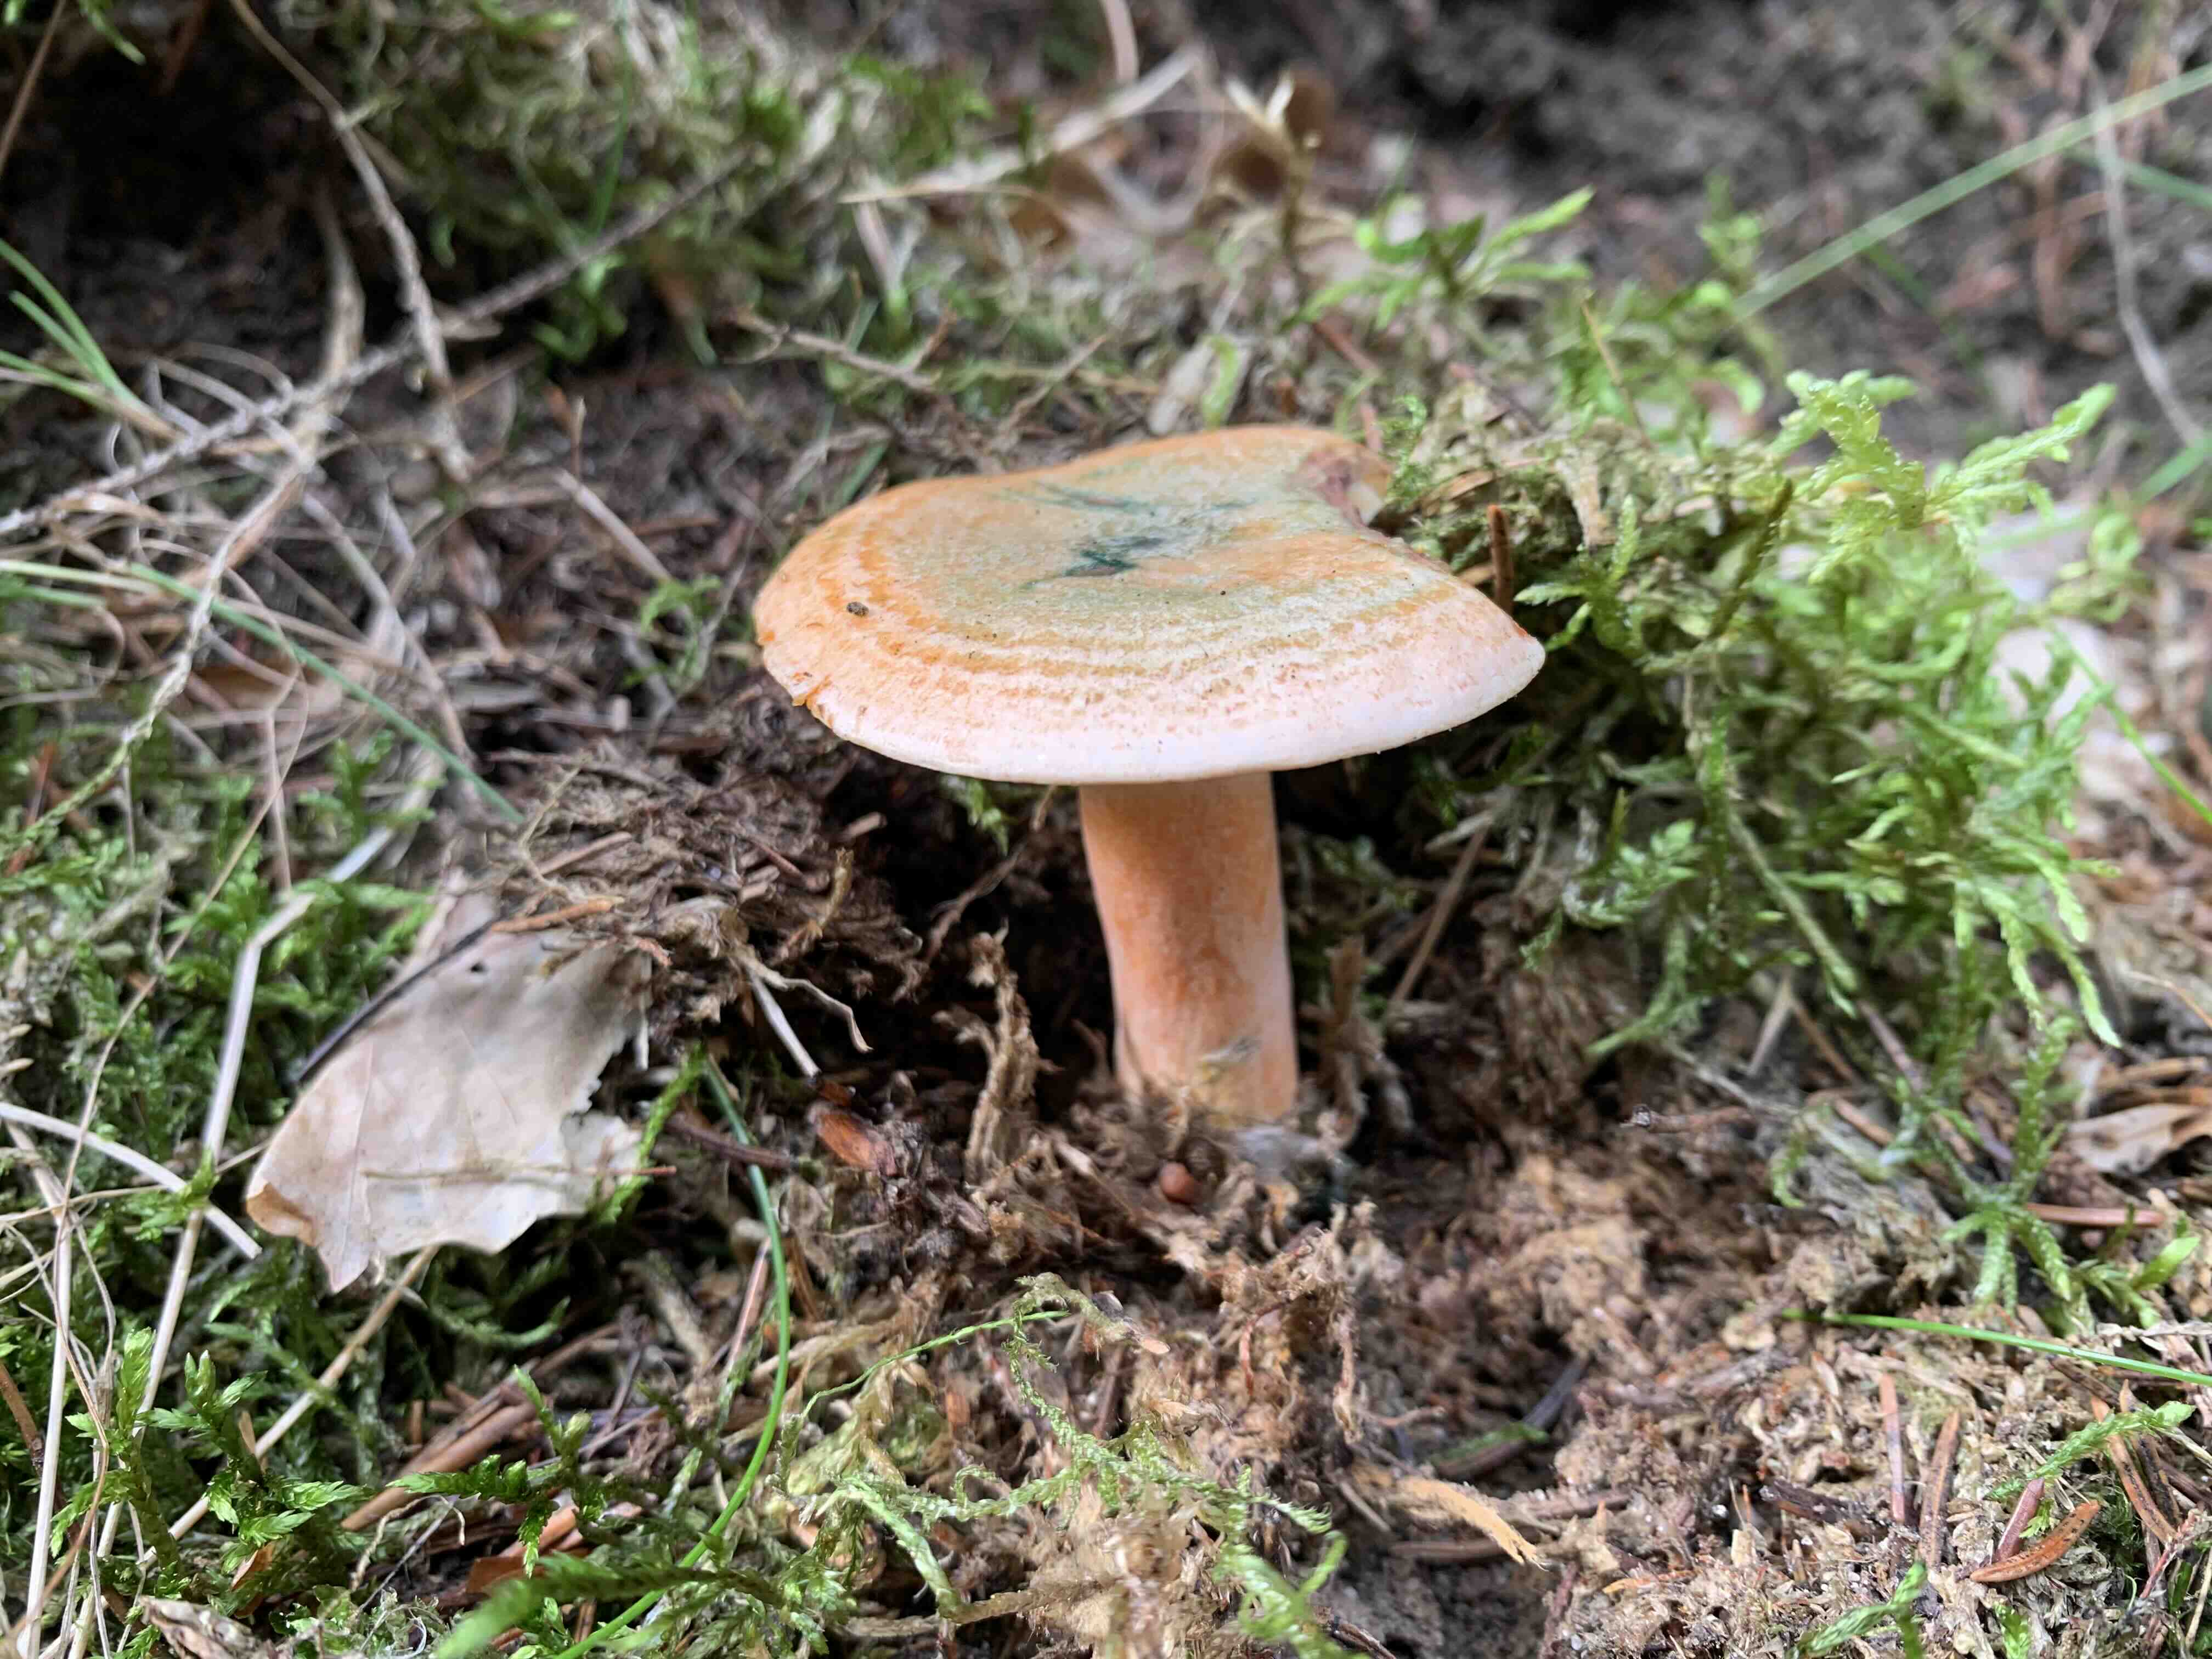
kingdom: Fungi
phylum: Basidiomycota
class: Agaricomycetes
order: Russulales
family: Russulaceae
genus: Lactarius
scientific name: Lactarius deterrimus
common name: gran-mælkehat
